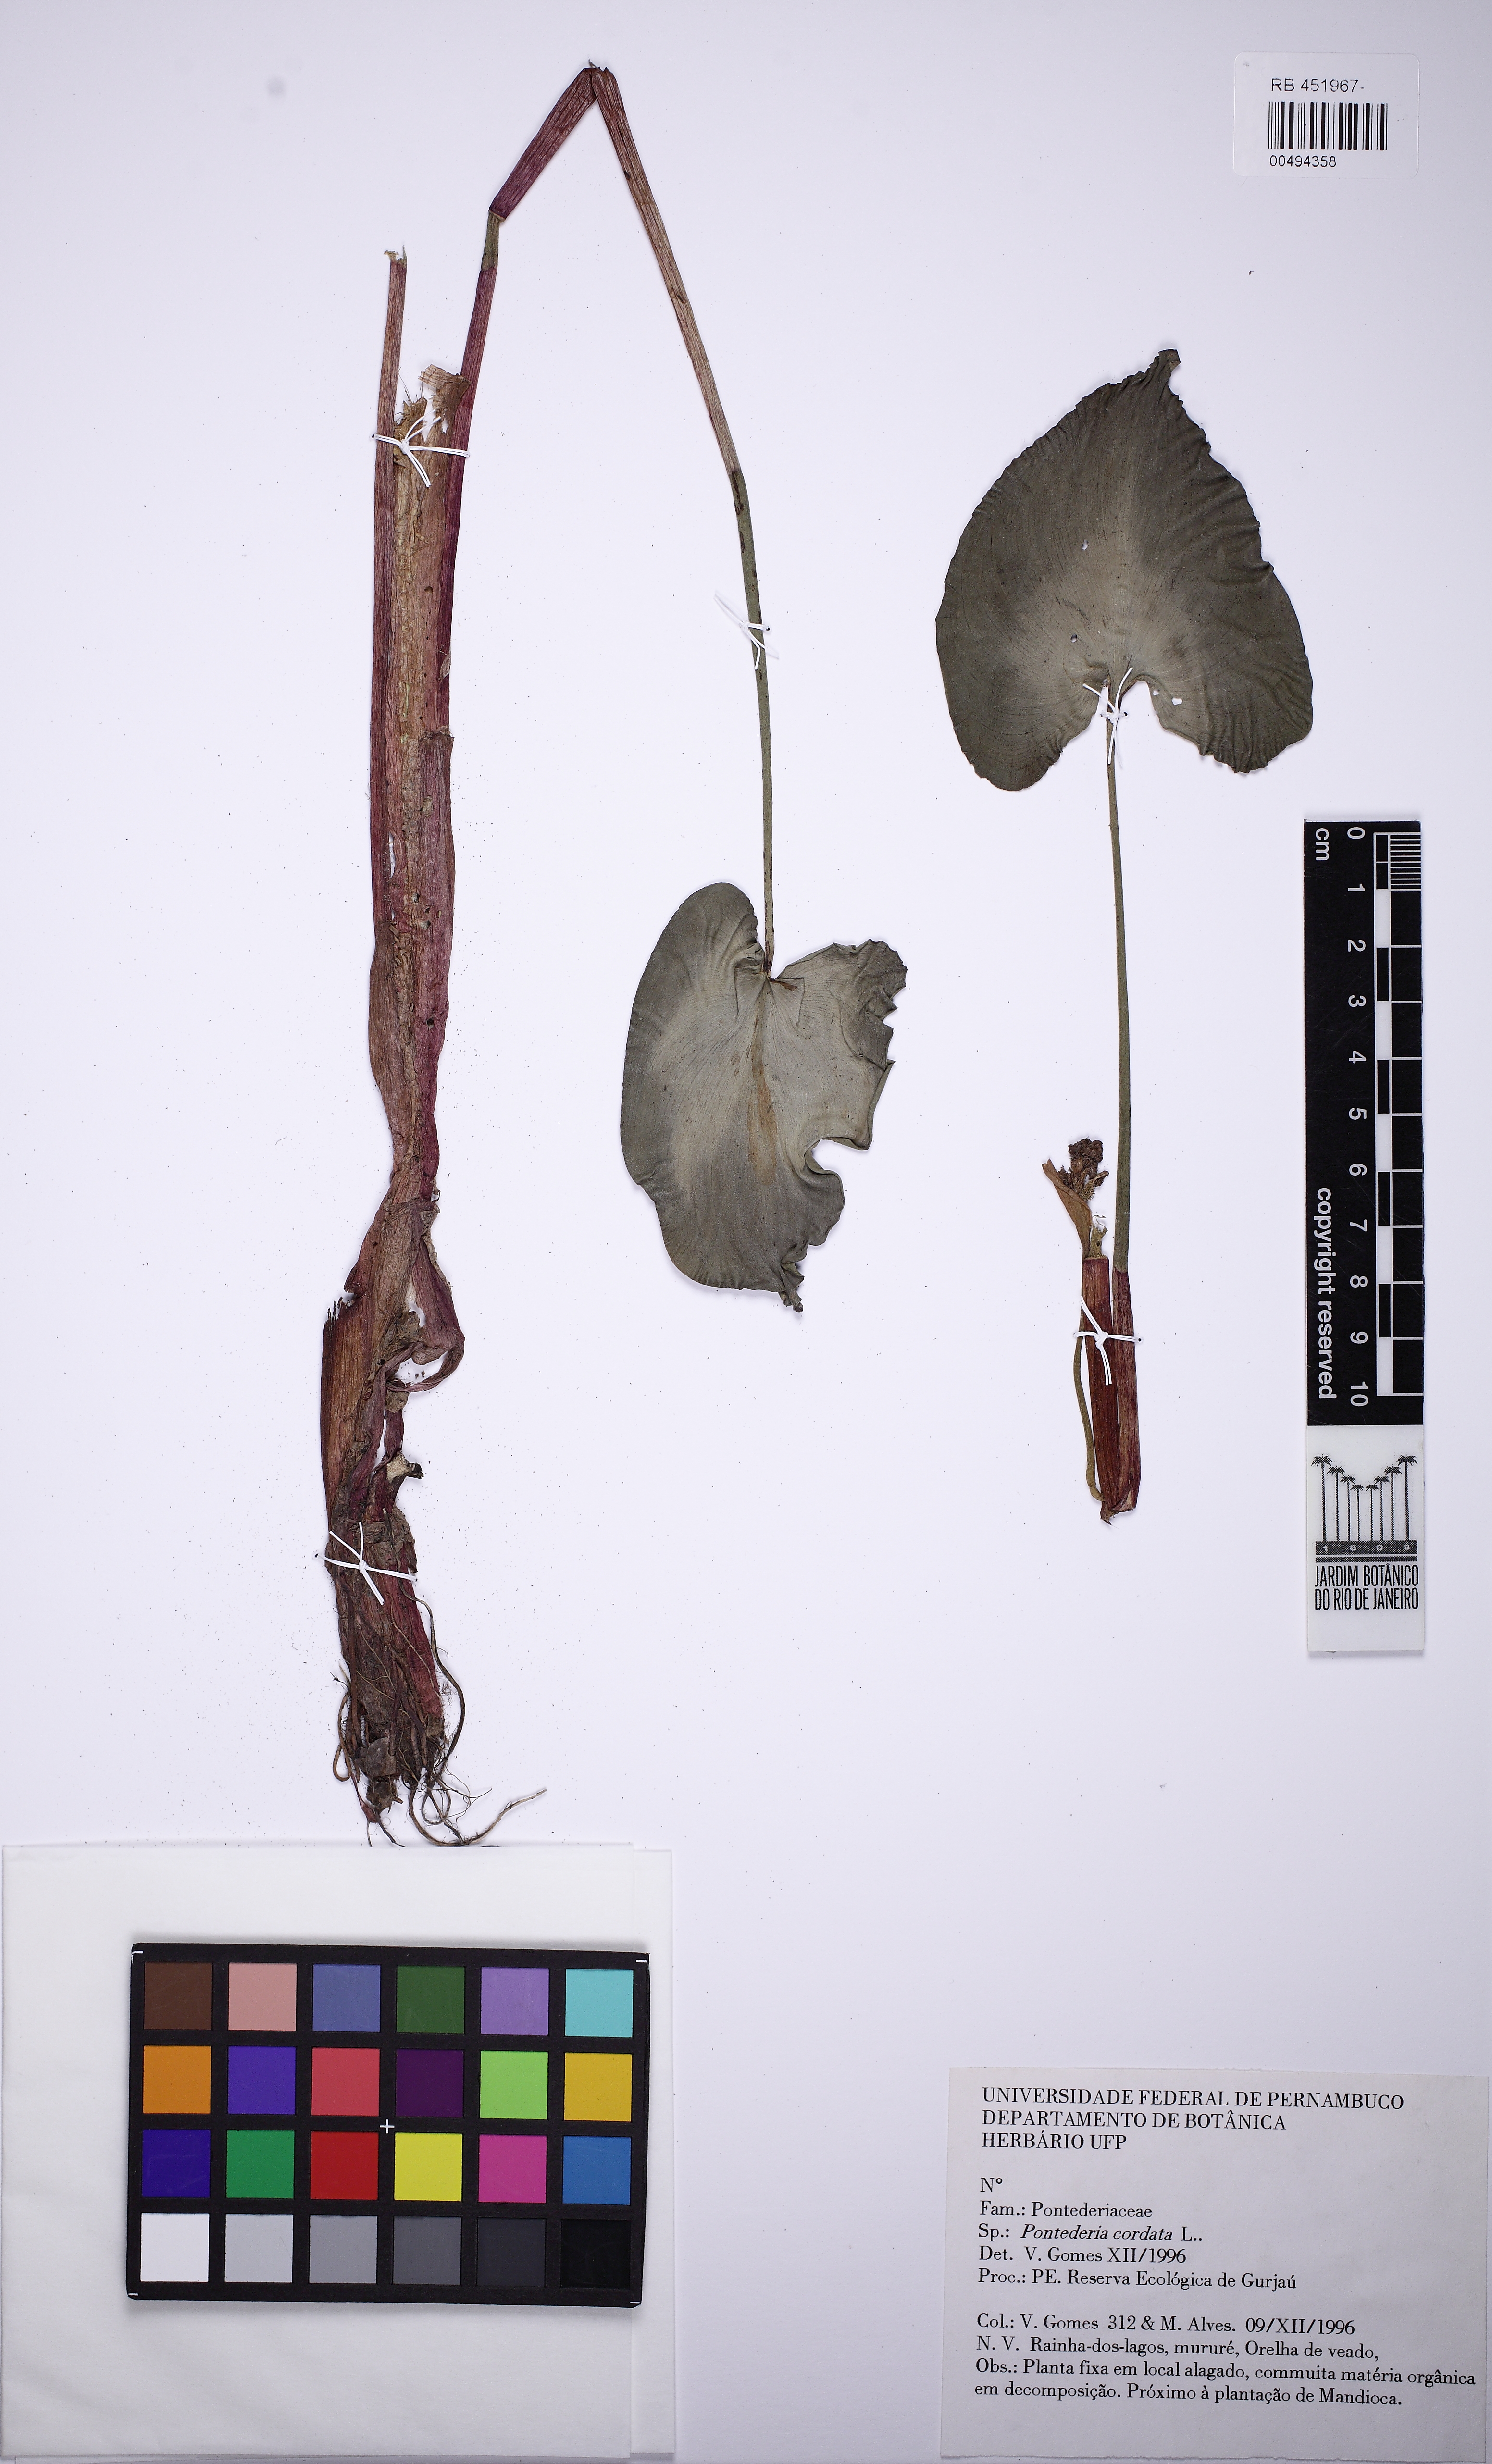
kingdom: Plantae
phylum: Tracheophyta
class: Liliopsida
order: Commelinales
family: Pontederiaceae
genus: Pontederia
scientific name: Pontederia rotundifolia
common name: Tropical pickerel-weed
